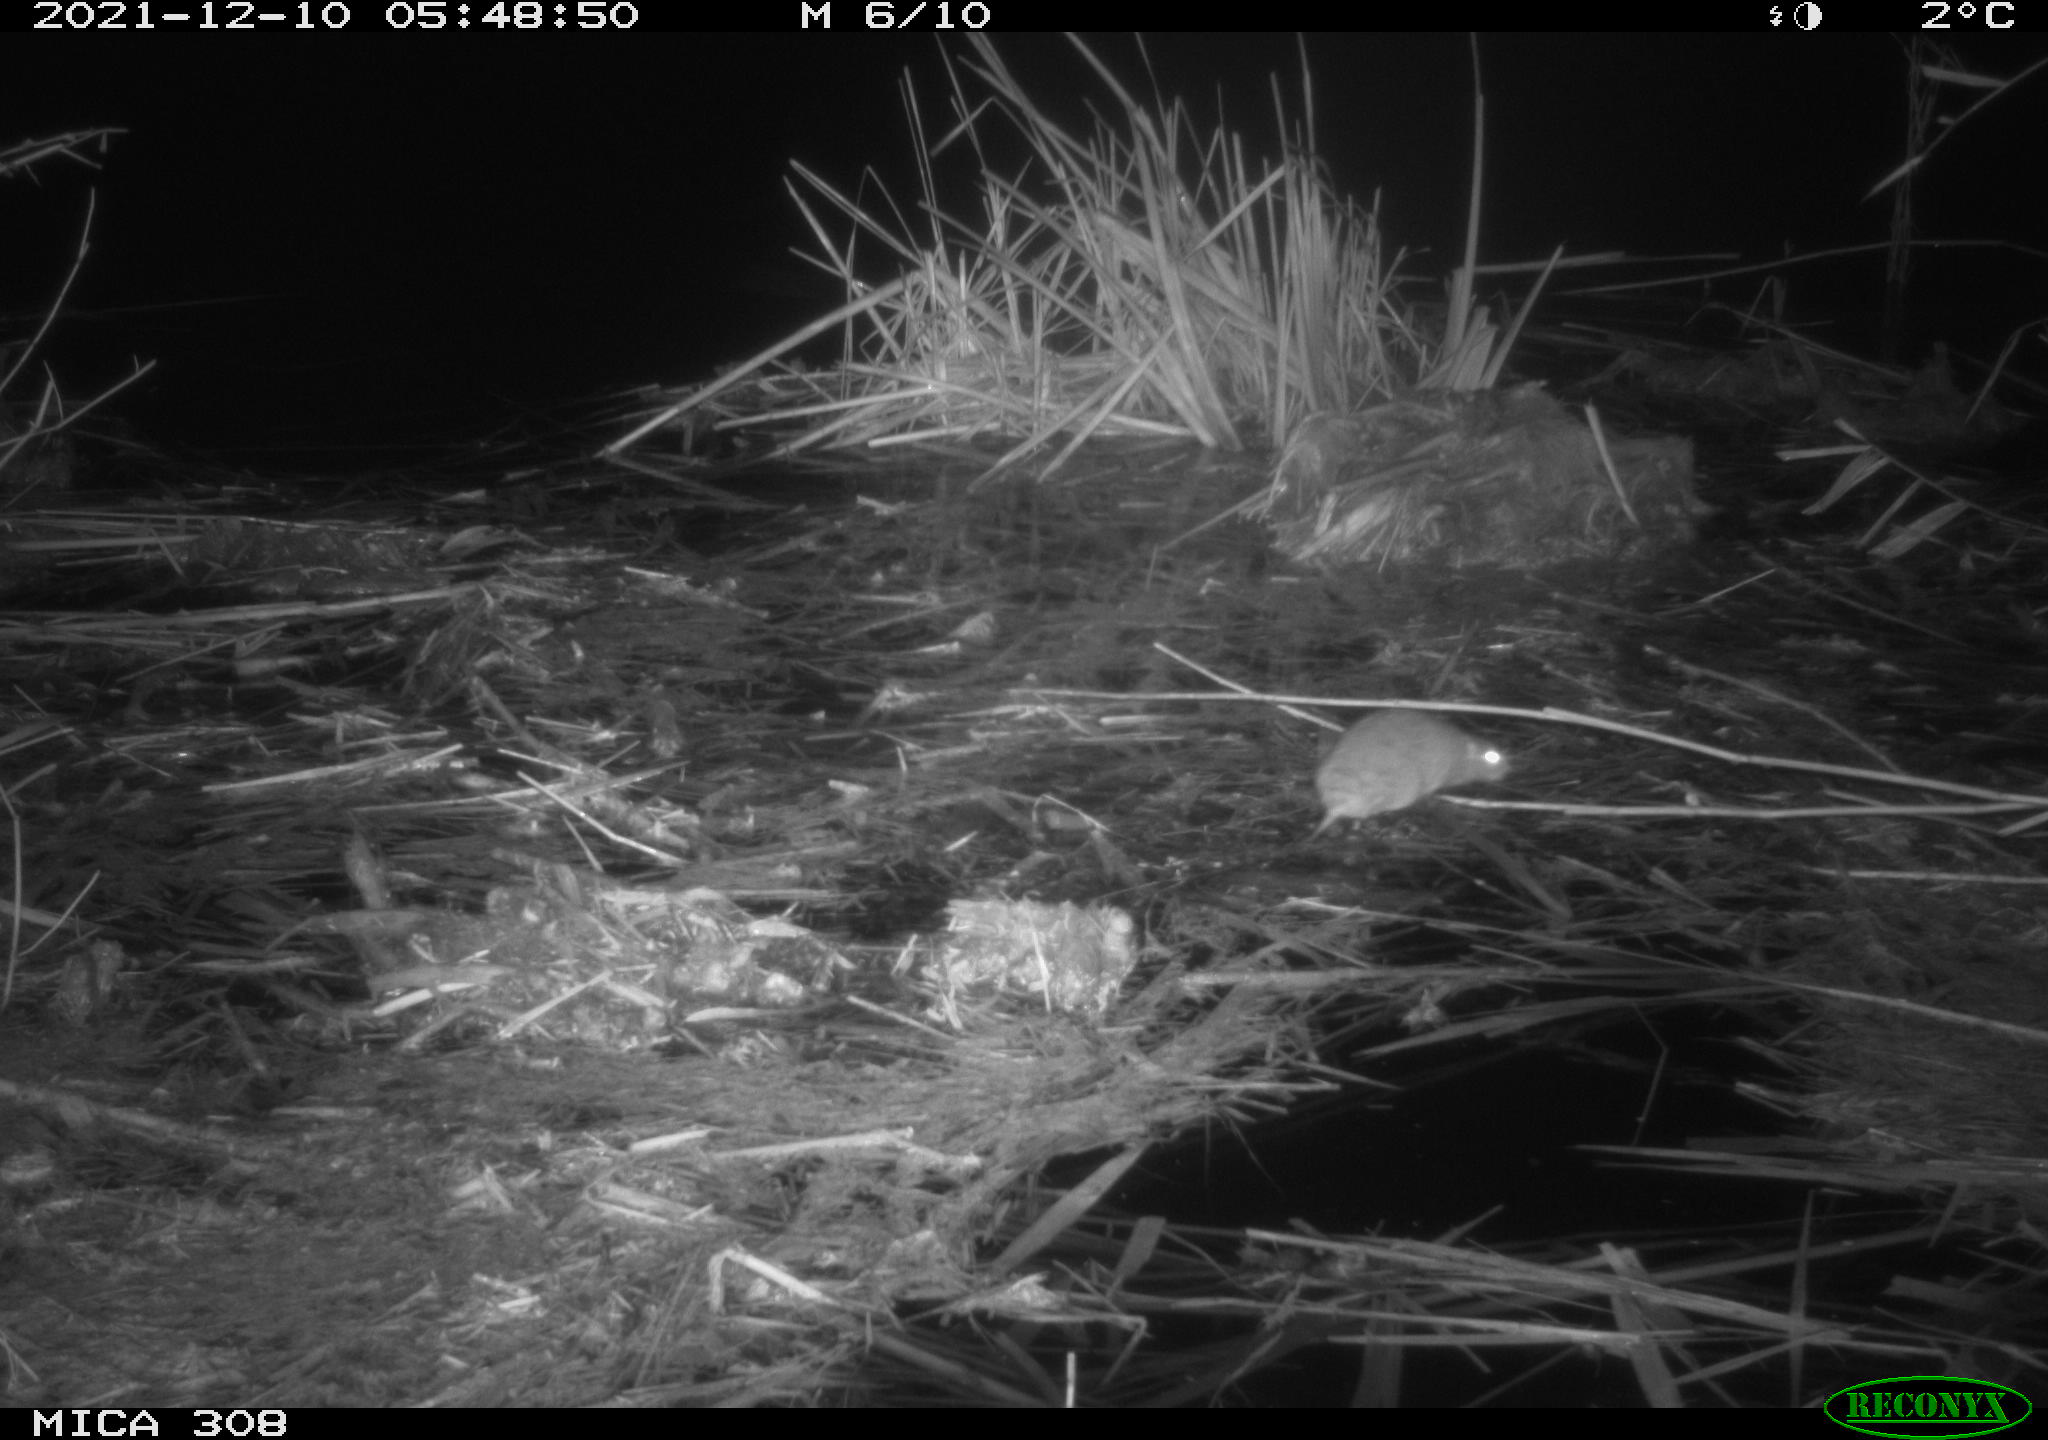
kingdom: Animalia
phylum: Chordata
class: Mammalia
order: Rodentia
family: Muridae
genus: Rattus
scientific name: Rattus norvegicus
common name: Brown rat
